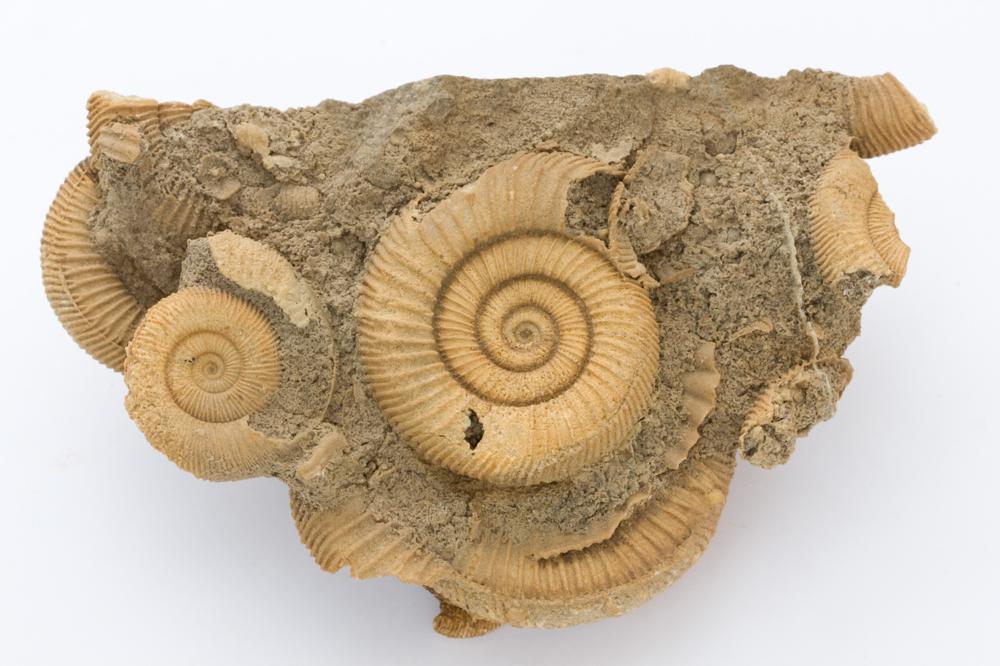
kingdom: Animalia
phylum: Mollusca
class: Cephalopoda
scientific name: Cephalopoda
